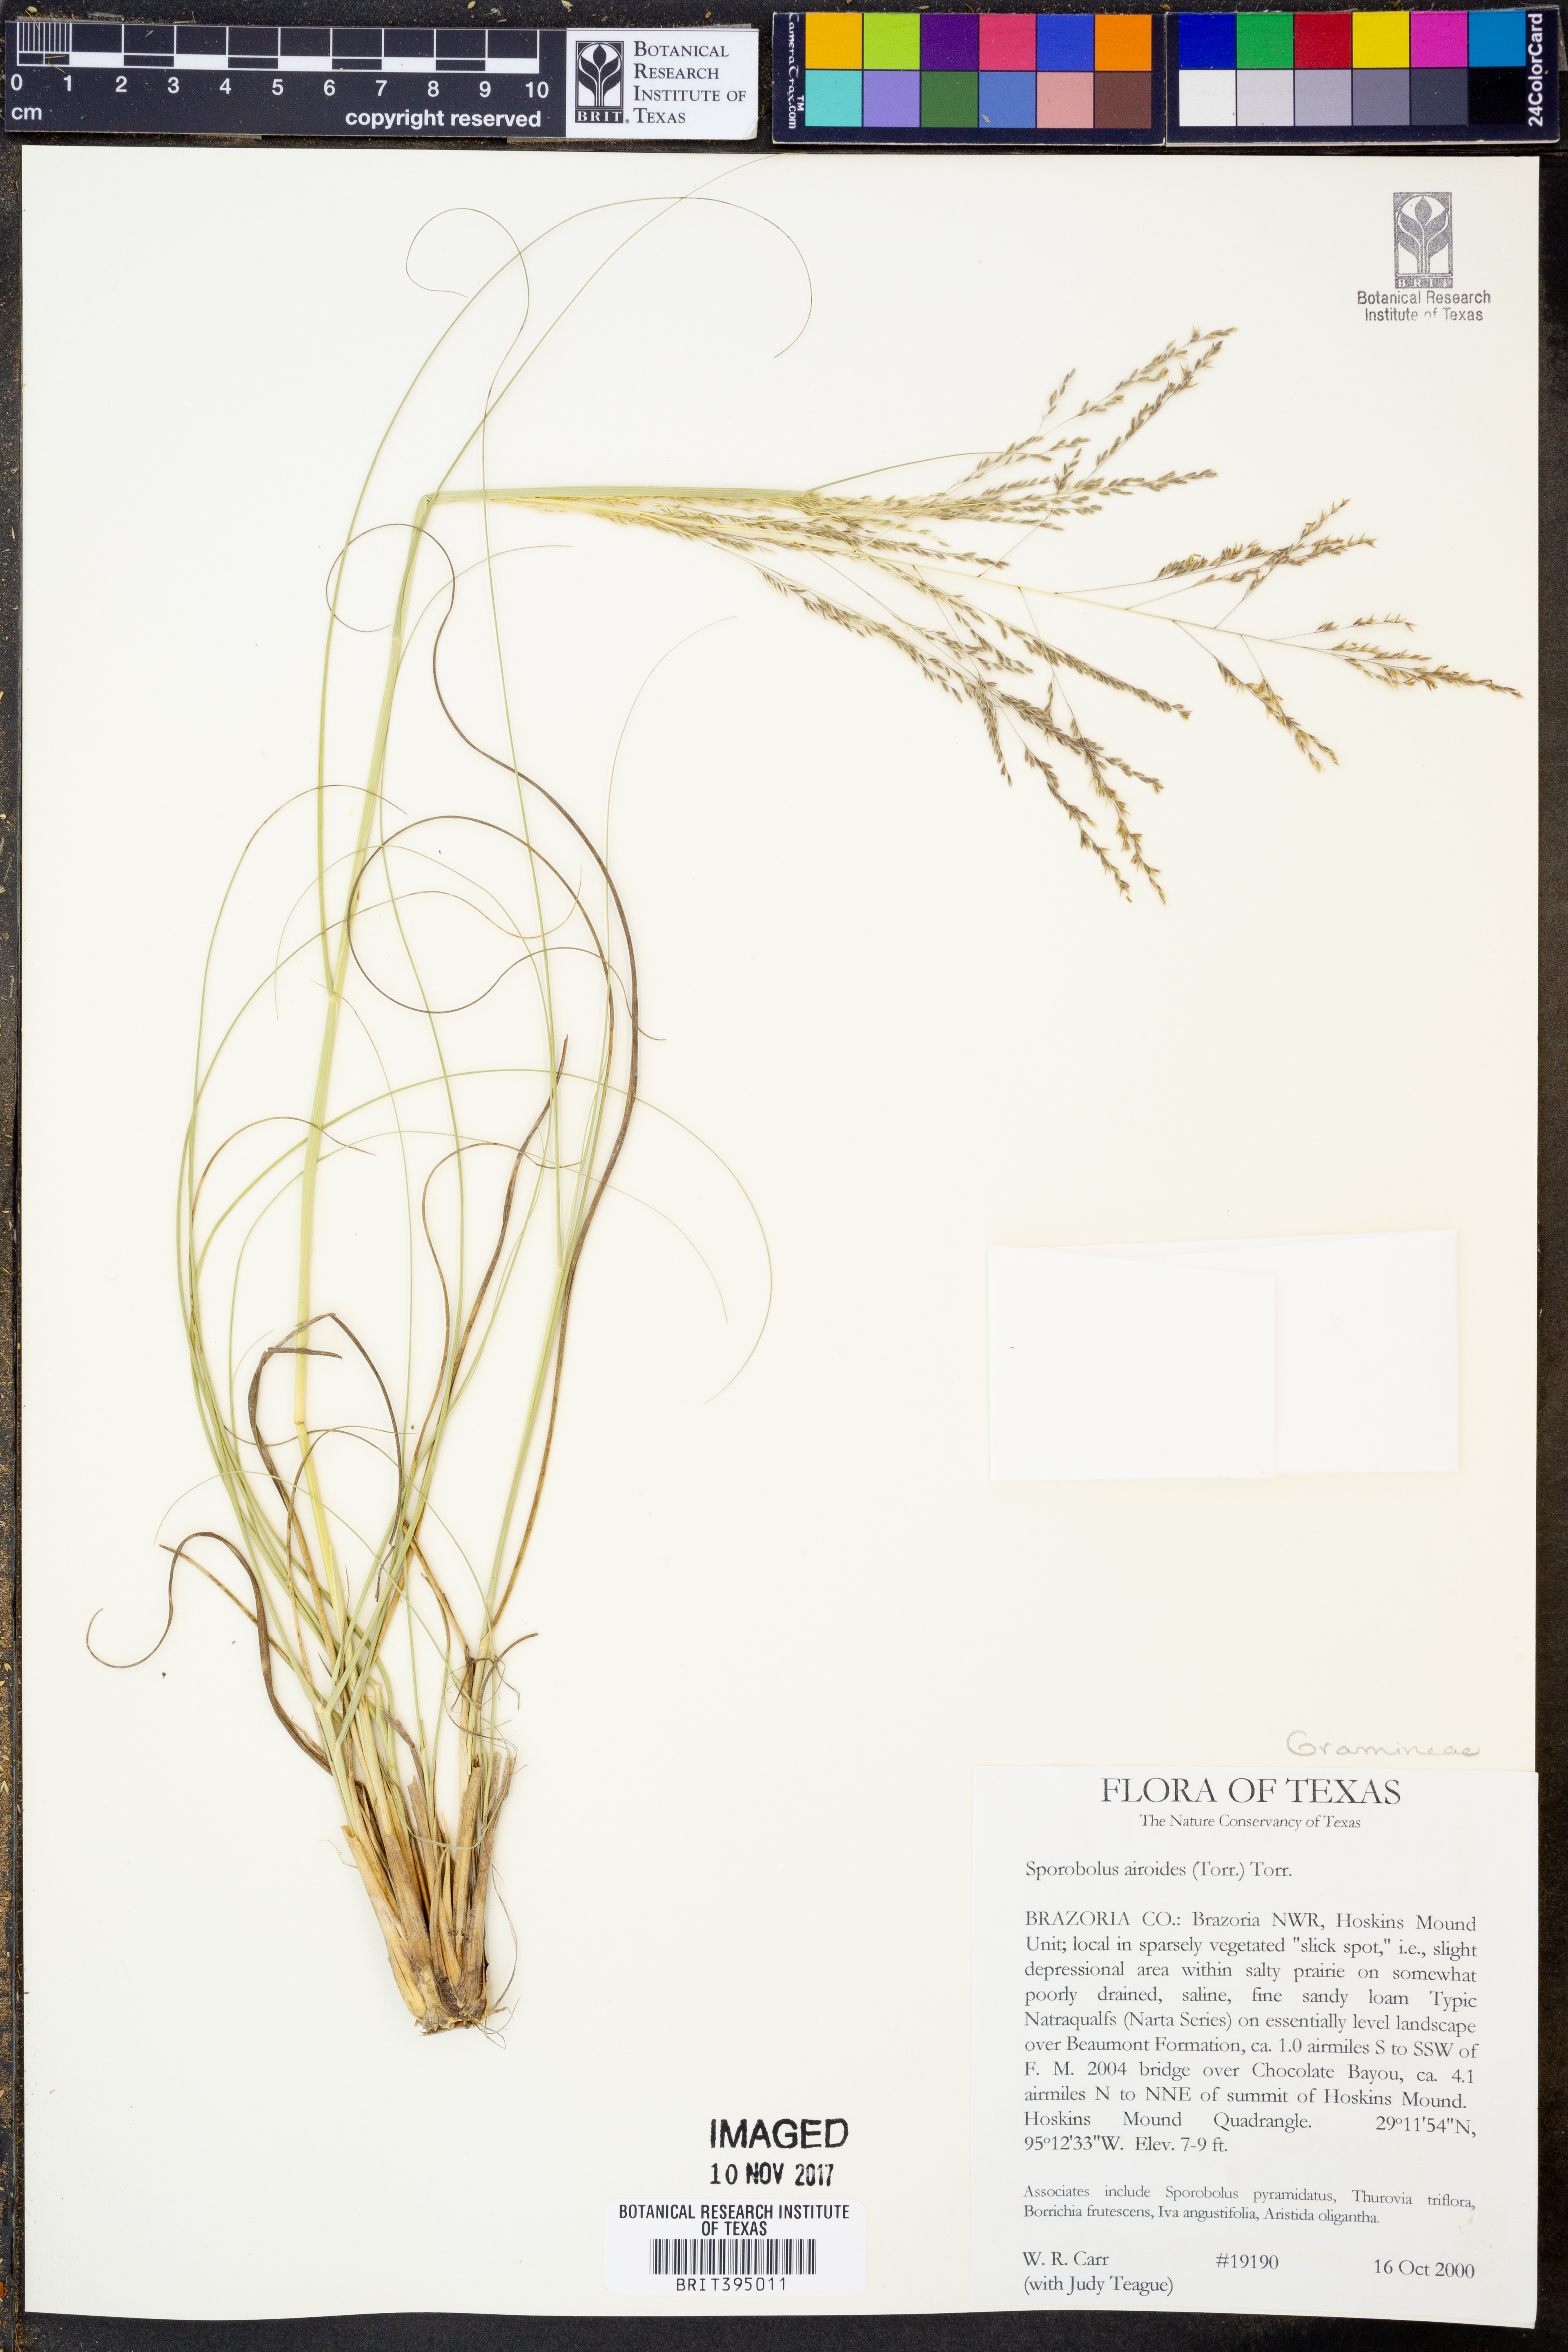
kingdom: Plantae
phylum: Tracheophyta
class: Liliopsida
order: Poales
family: Poaceae
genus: Sporobolus
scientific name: Sporobolus airoides
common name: Alkali sacaton
